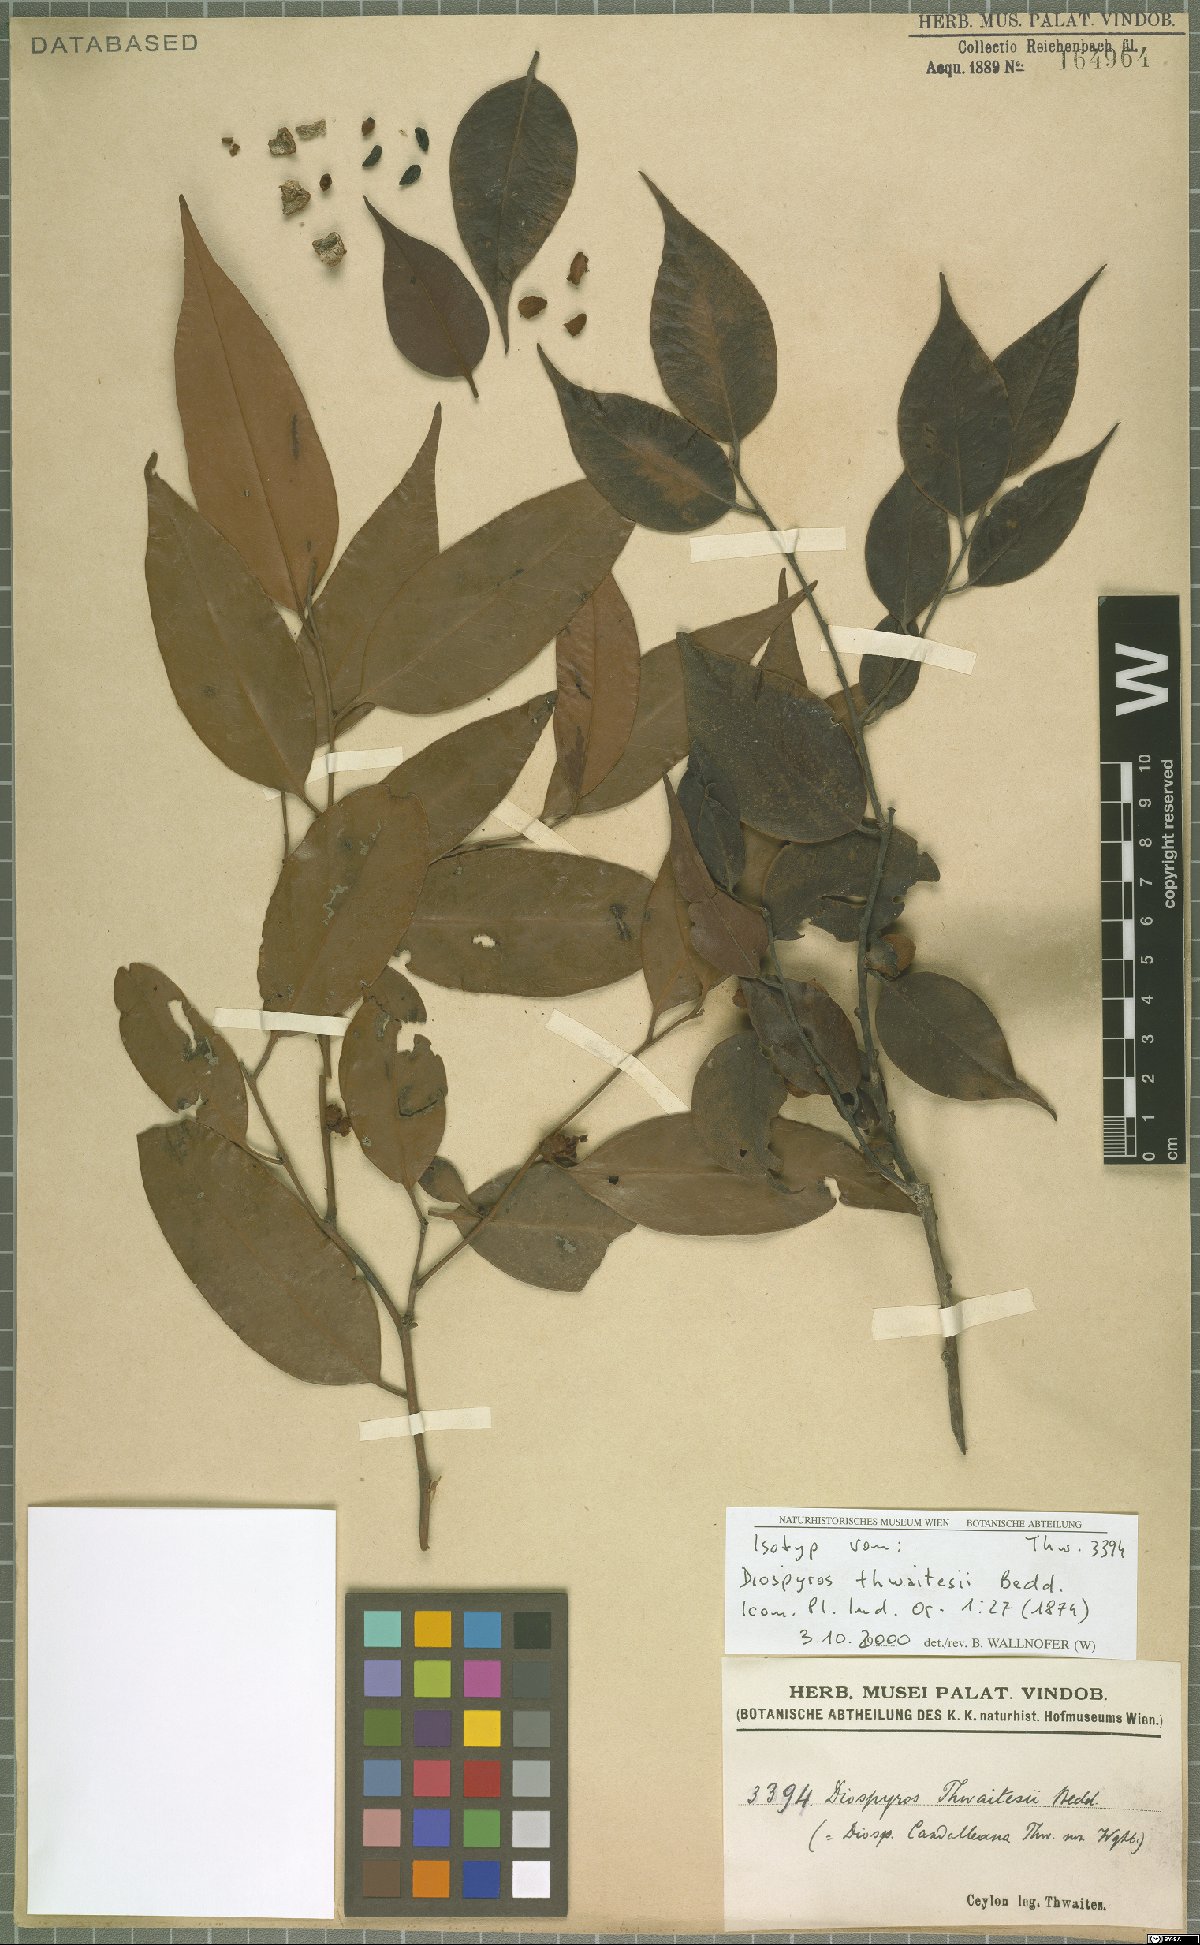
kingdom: Plantae
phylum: Tracheophyta
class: Magnoliopsida
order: Ericales
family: Ebenaceae
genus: Diospyros
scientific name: Diospyros thwaitesii
